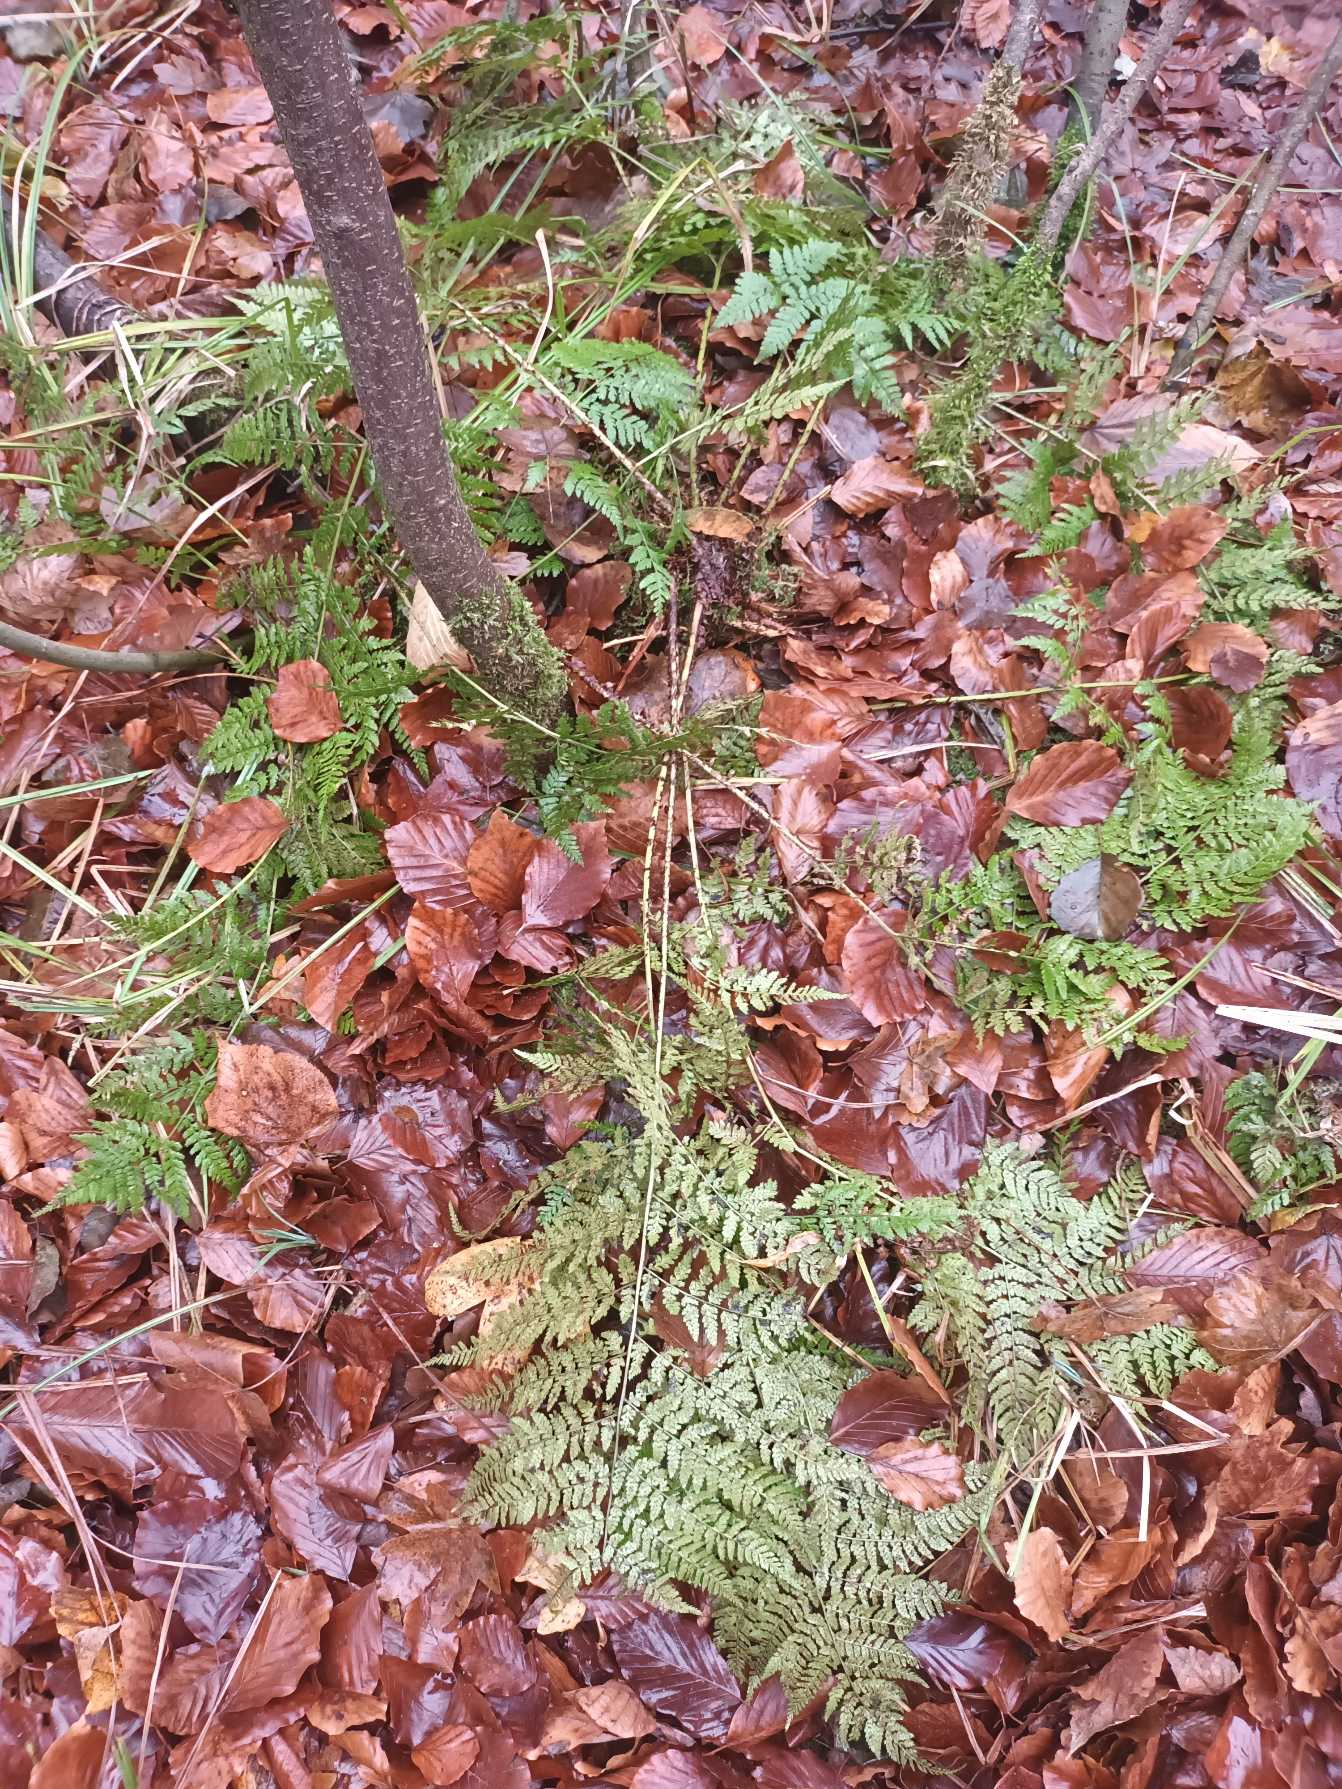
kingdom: Plantae
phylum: Tracheophyta
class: Polypodiopsida
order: Polypodiales
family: Dryopteridaceae
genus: Dryopteris
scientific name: Dryopteris dilatata
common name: Bredbladet mangeløv
